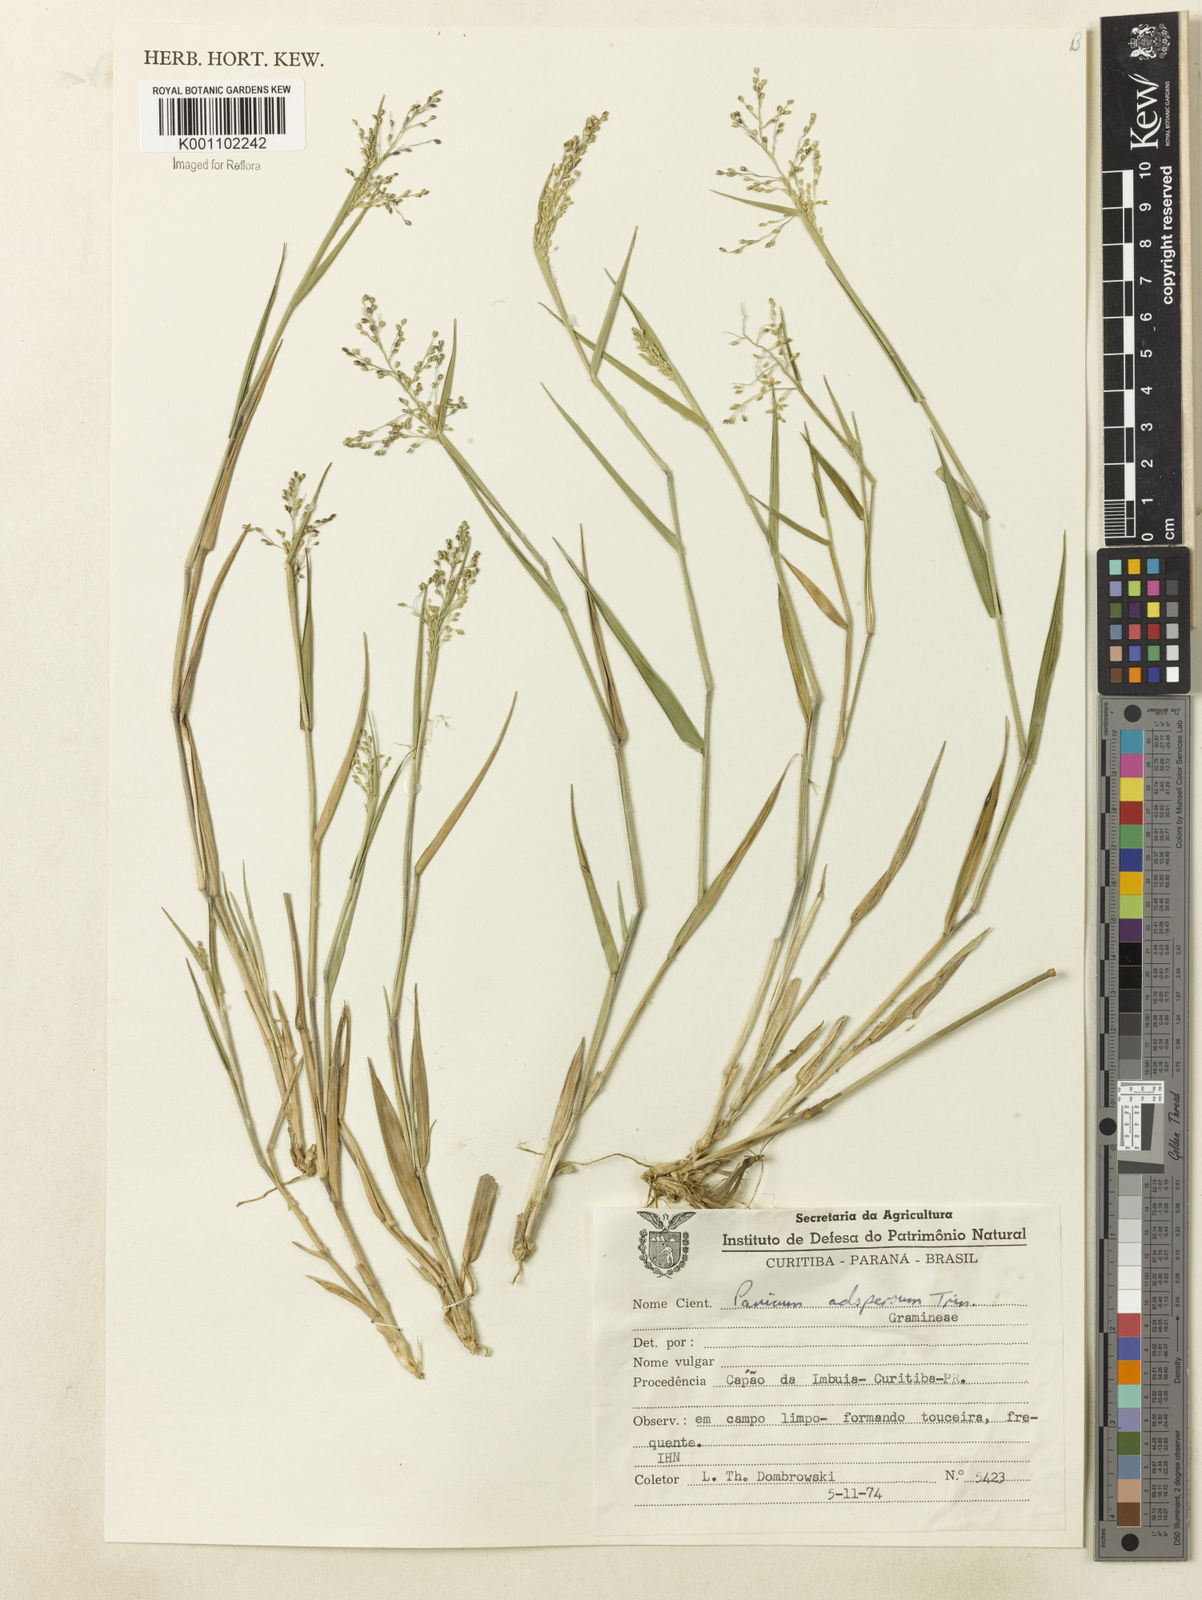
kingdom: Plantae
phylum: Tracheophyta
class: Liliopsida
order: Poales
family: Poaceae
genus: Dichanthelium
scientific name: Dichanthelium sabulorum
